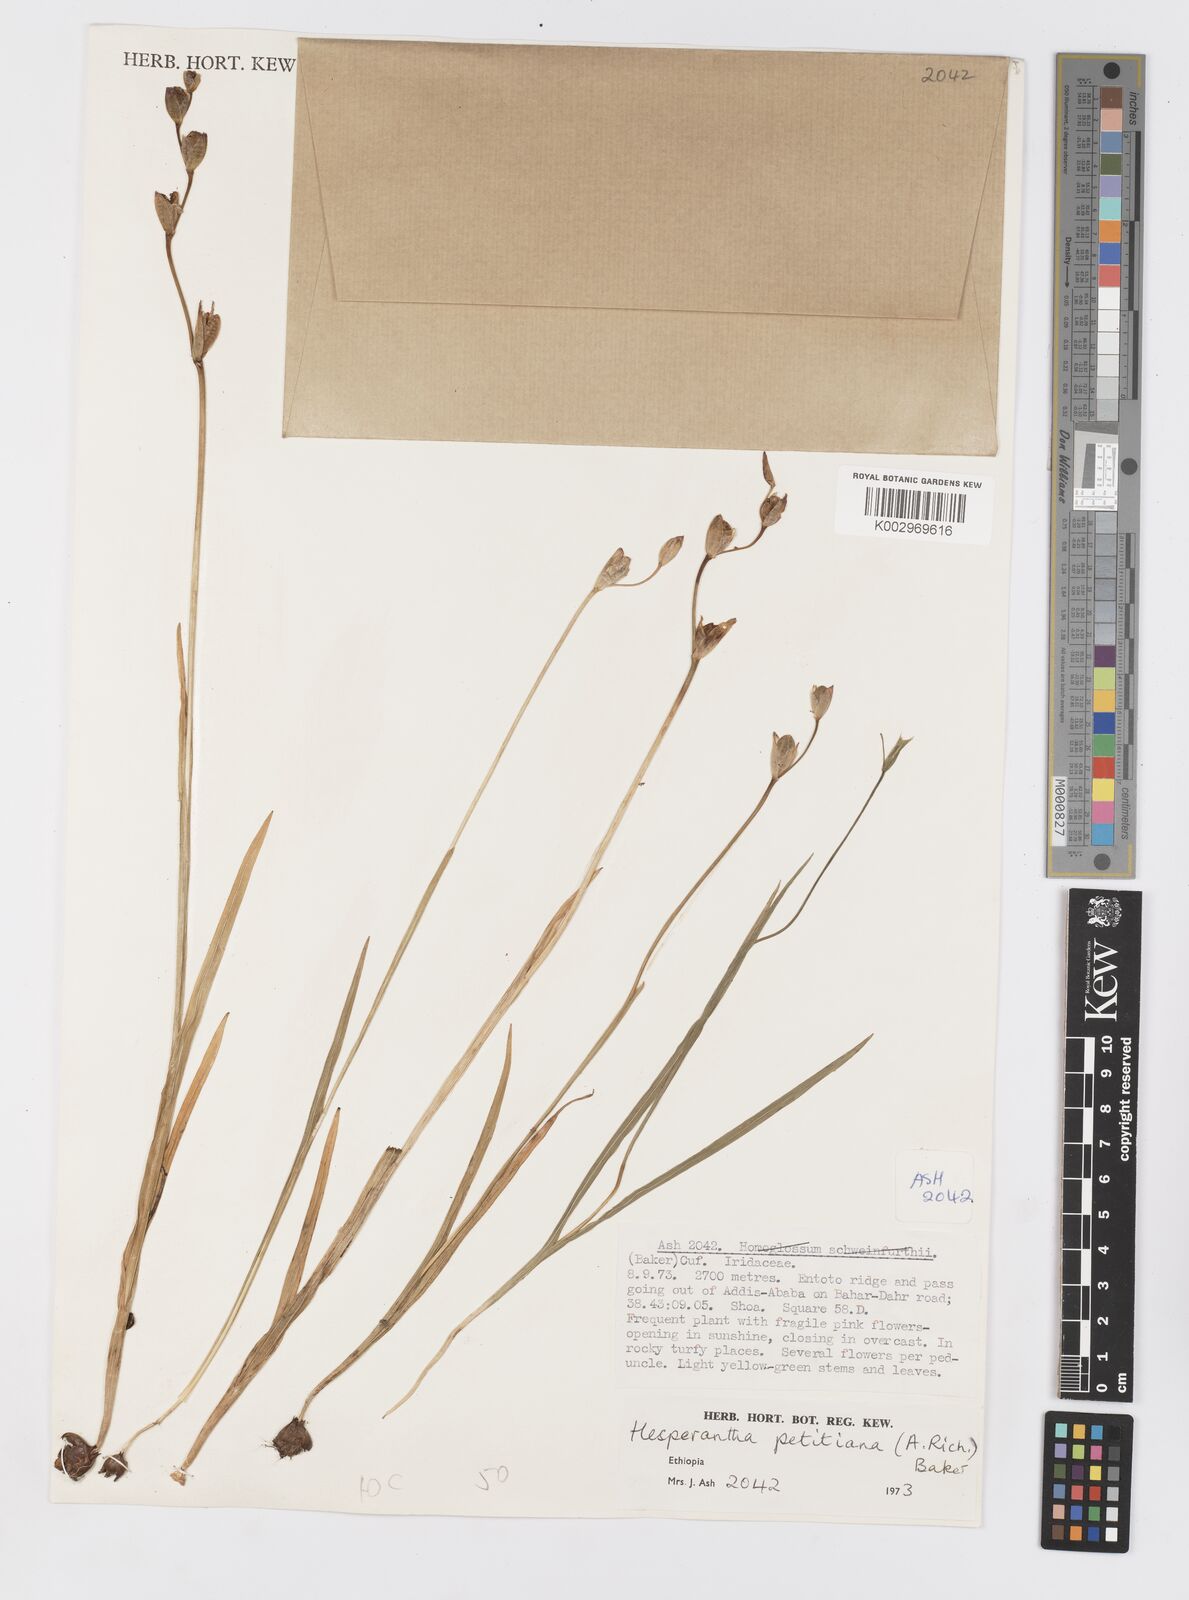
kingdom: Plantae
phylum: Tracheophyta
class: Liliopsida
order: Asparagales
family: Iridaceae
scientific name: Iridaceae
